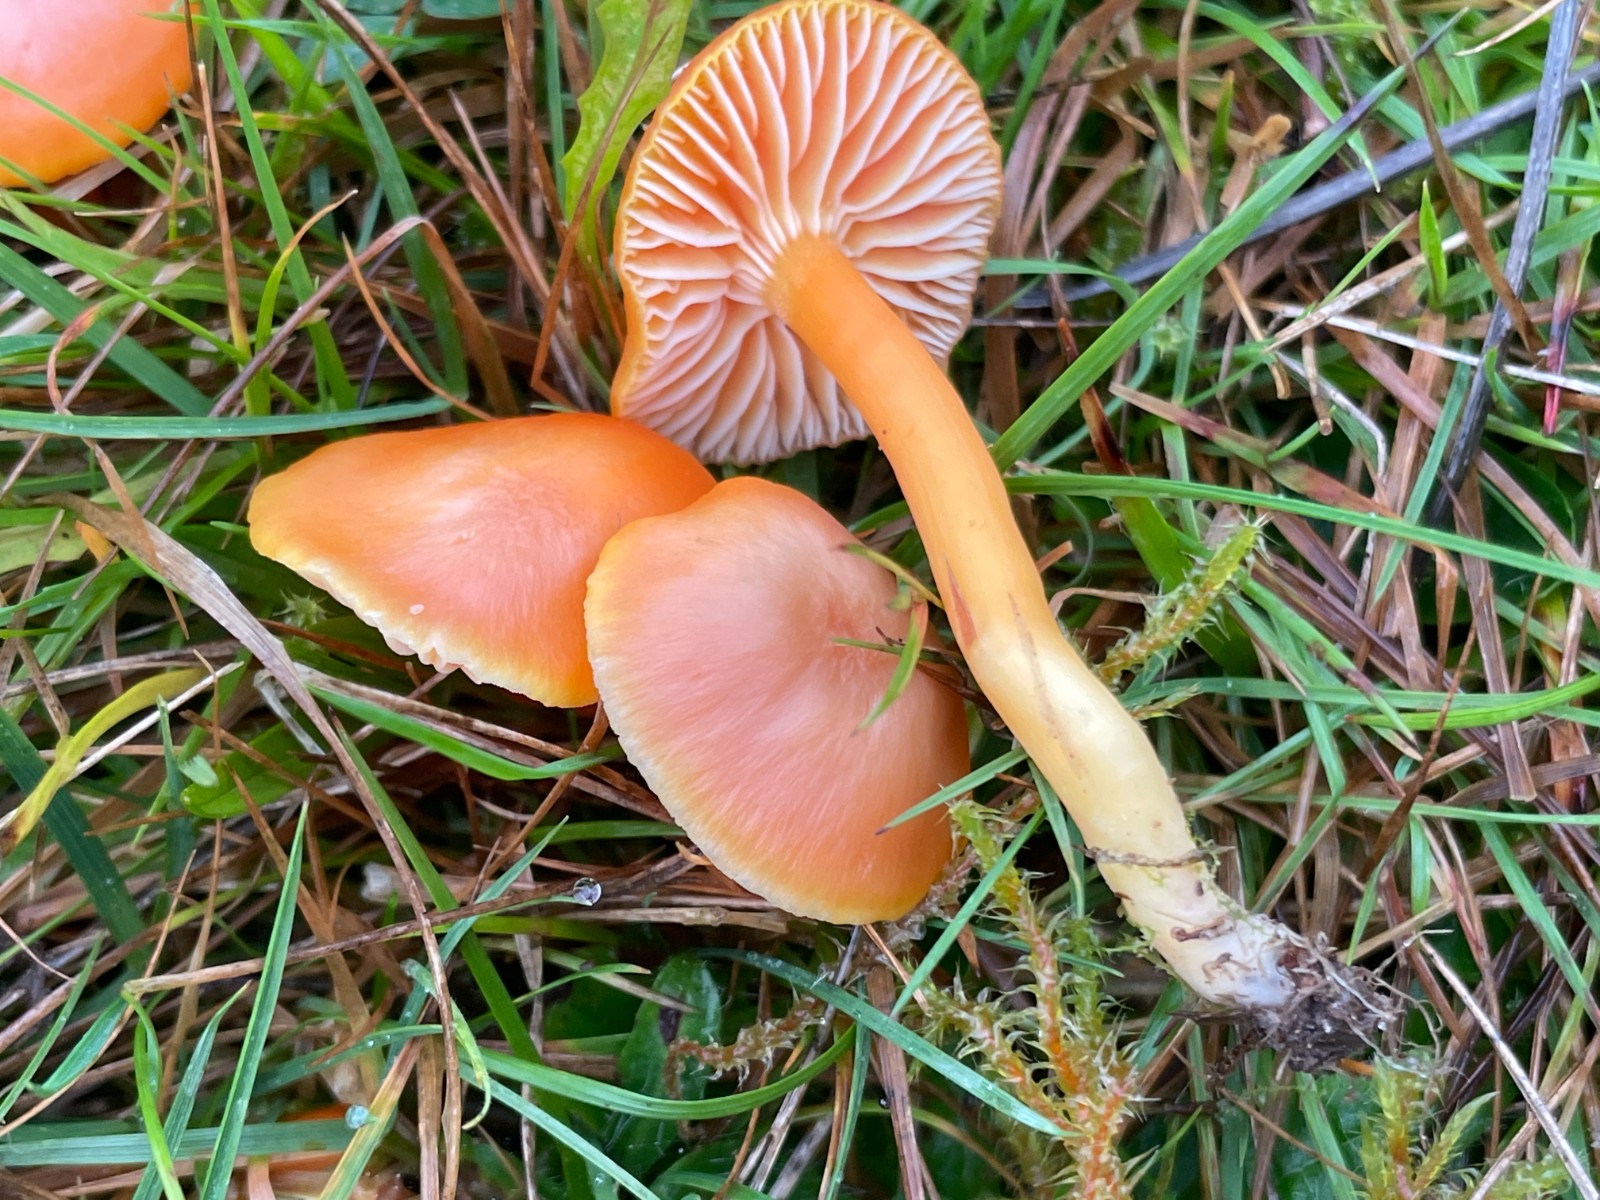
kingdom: Fungi
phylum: Basidiomycota
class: Agaricomycetes
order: Agaricales
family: Hygrophoraceae
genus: Hygrocybe
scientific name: Hygrocybe reidii
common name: honning-vokshat
